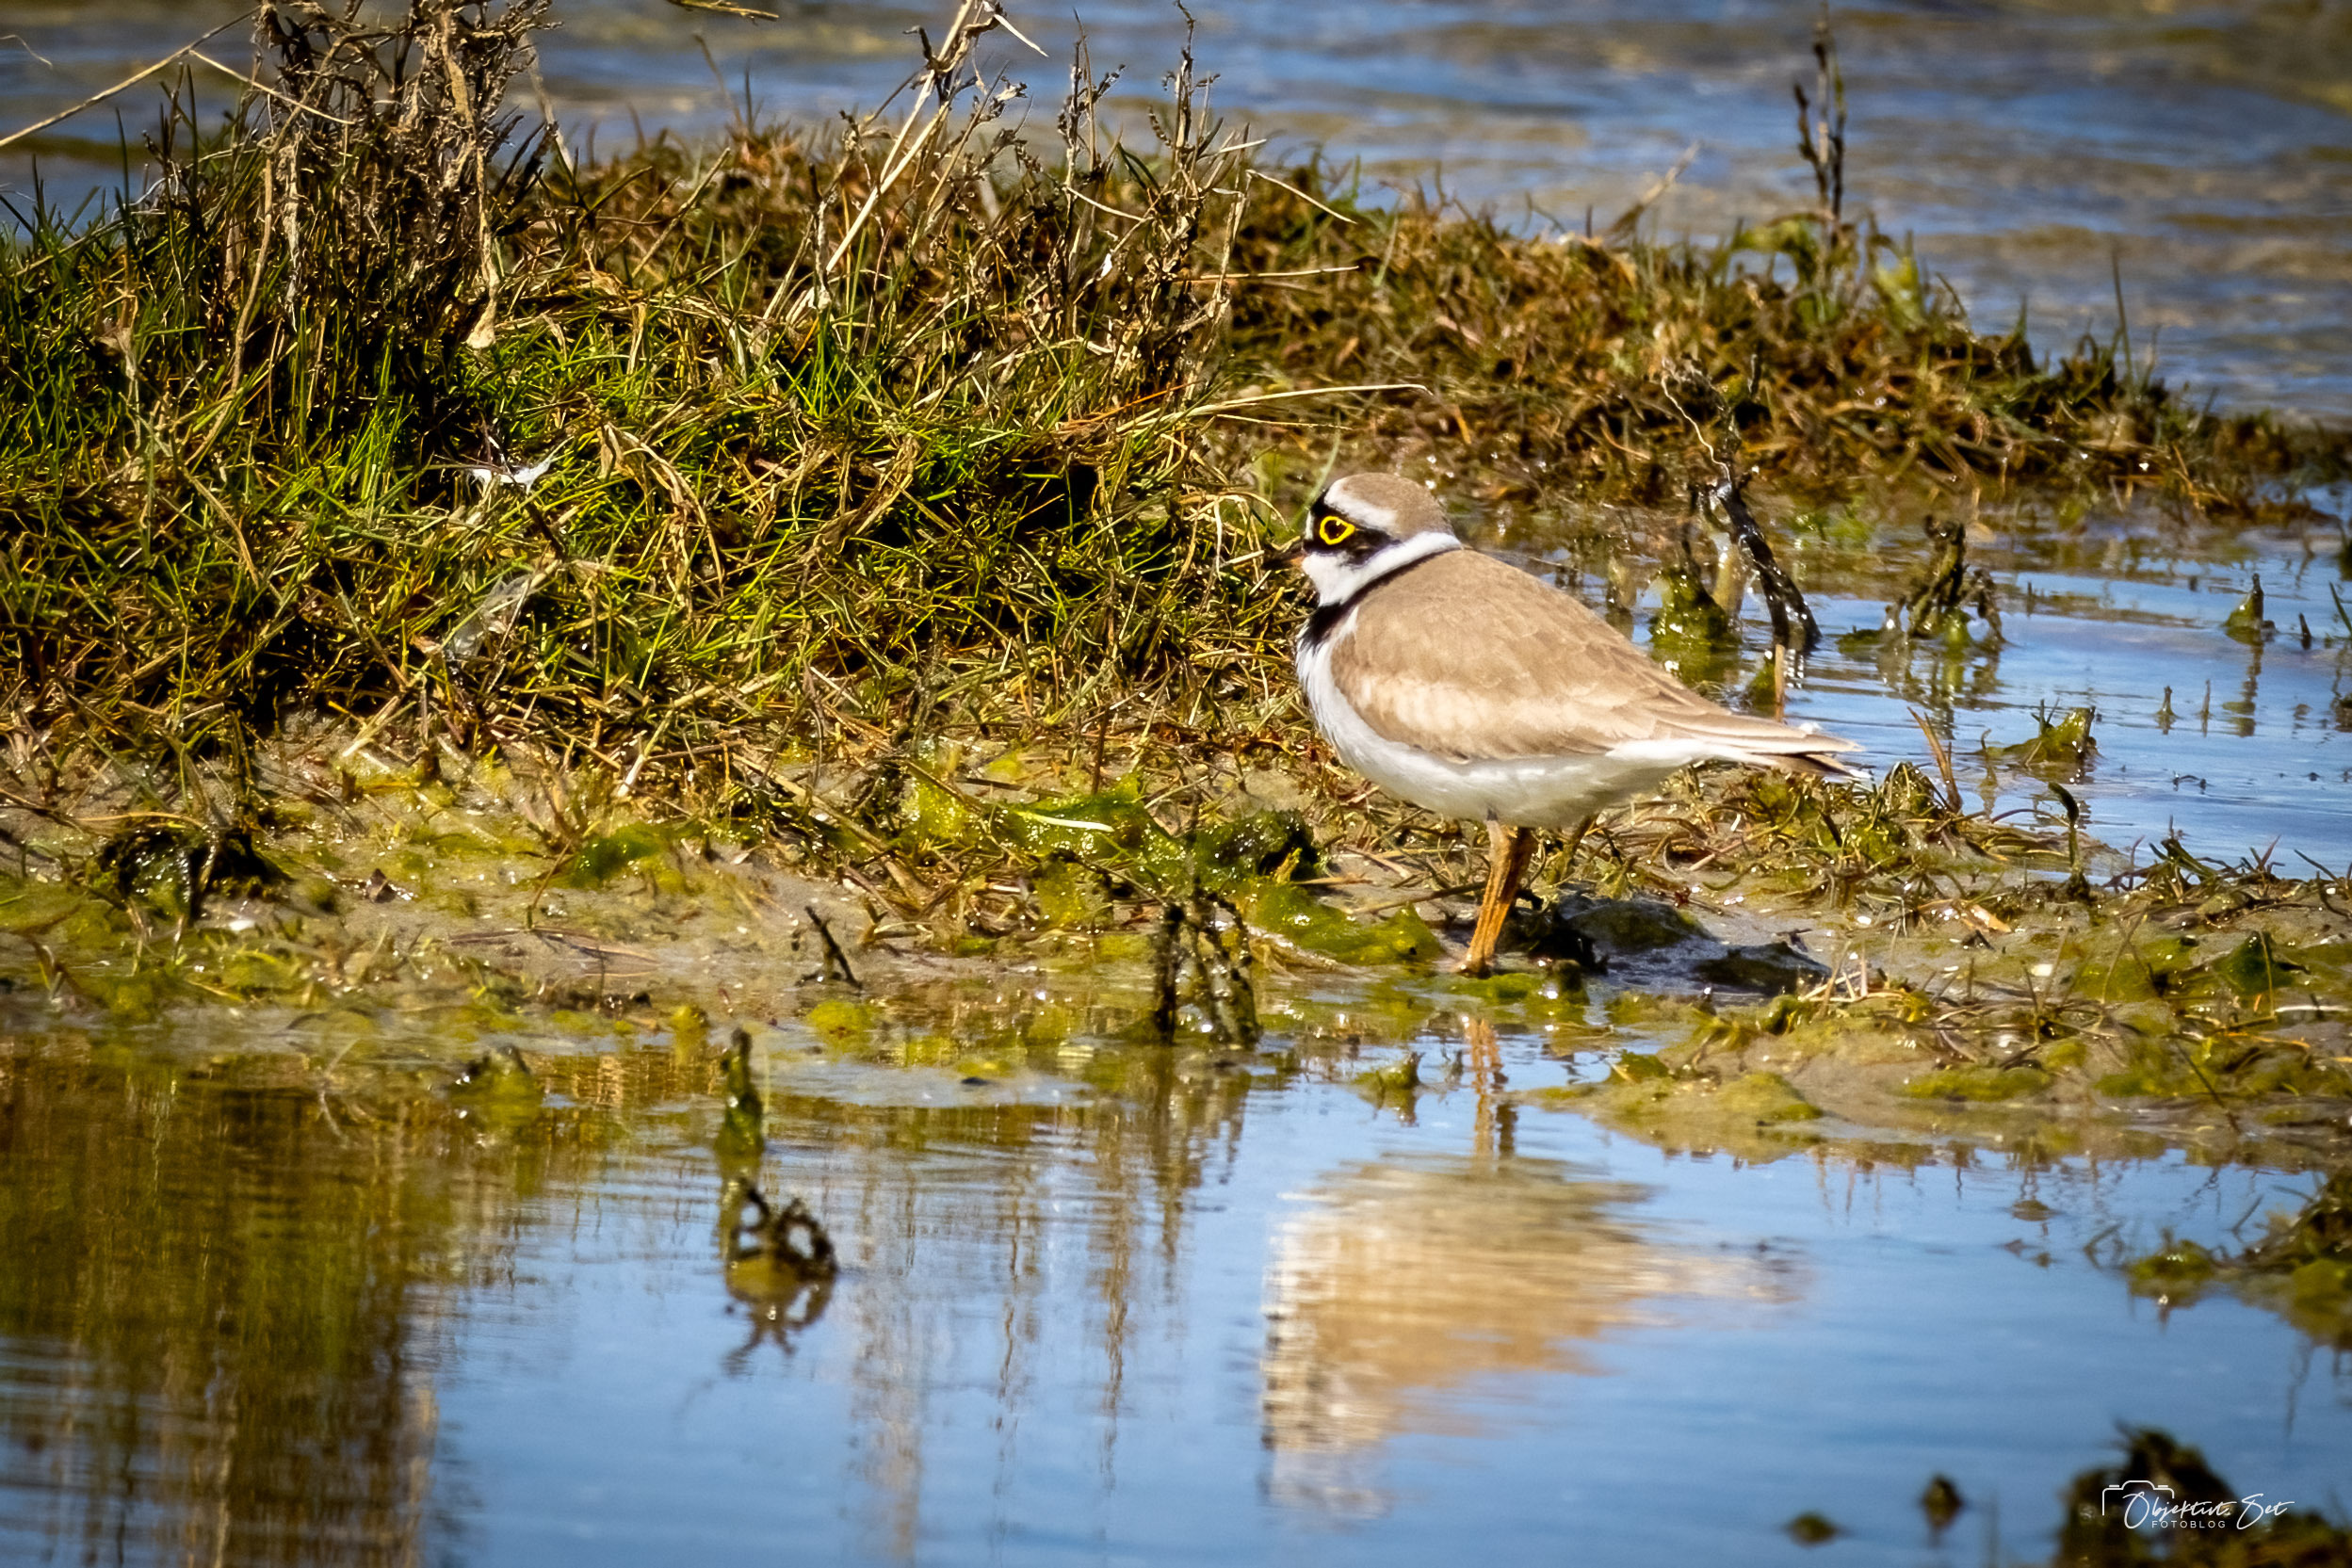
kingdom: Animalia
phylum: Chordata
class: Aves
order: Charadriiformes
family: Charadriidae
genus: Charadrius
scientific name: Charadrius dubius
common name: Lille præstekrave
